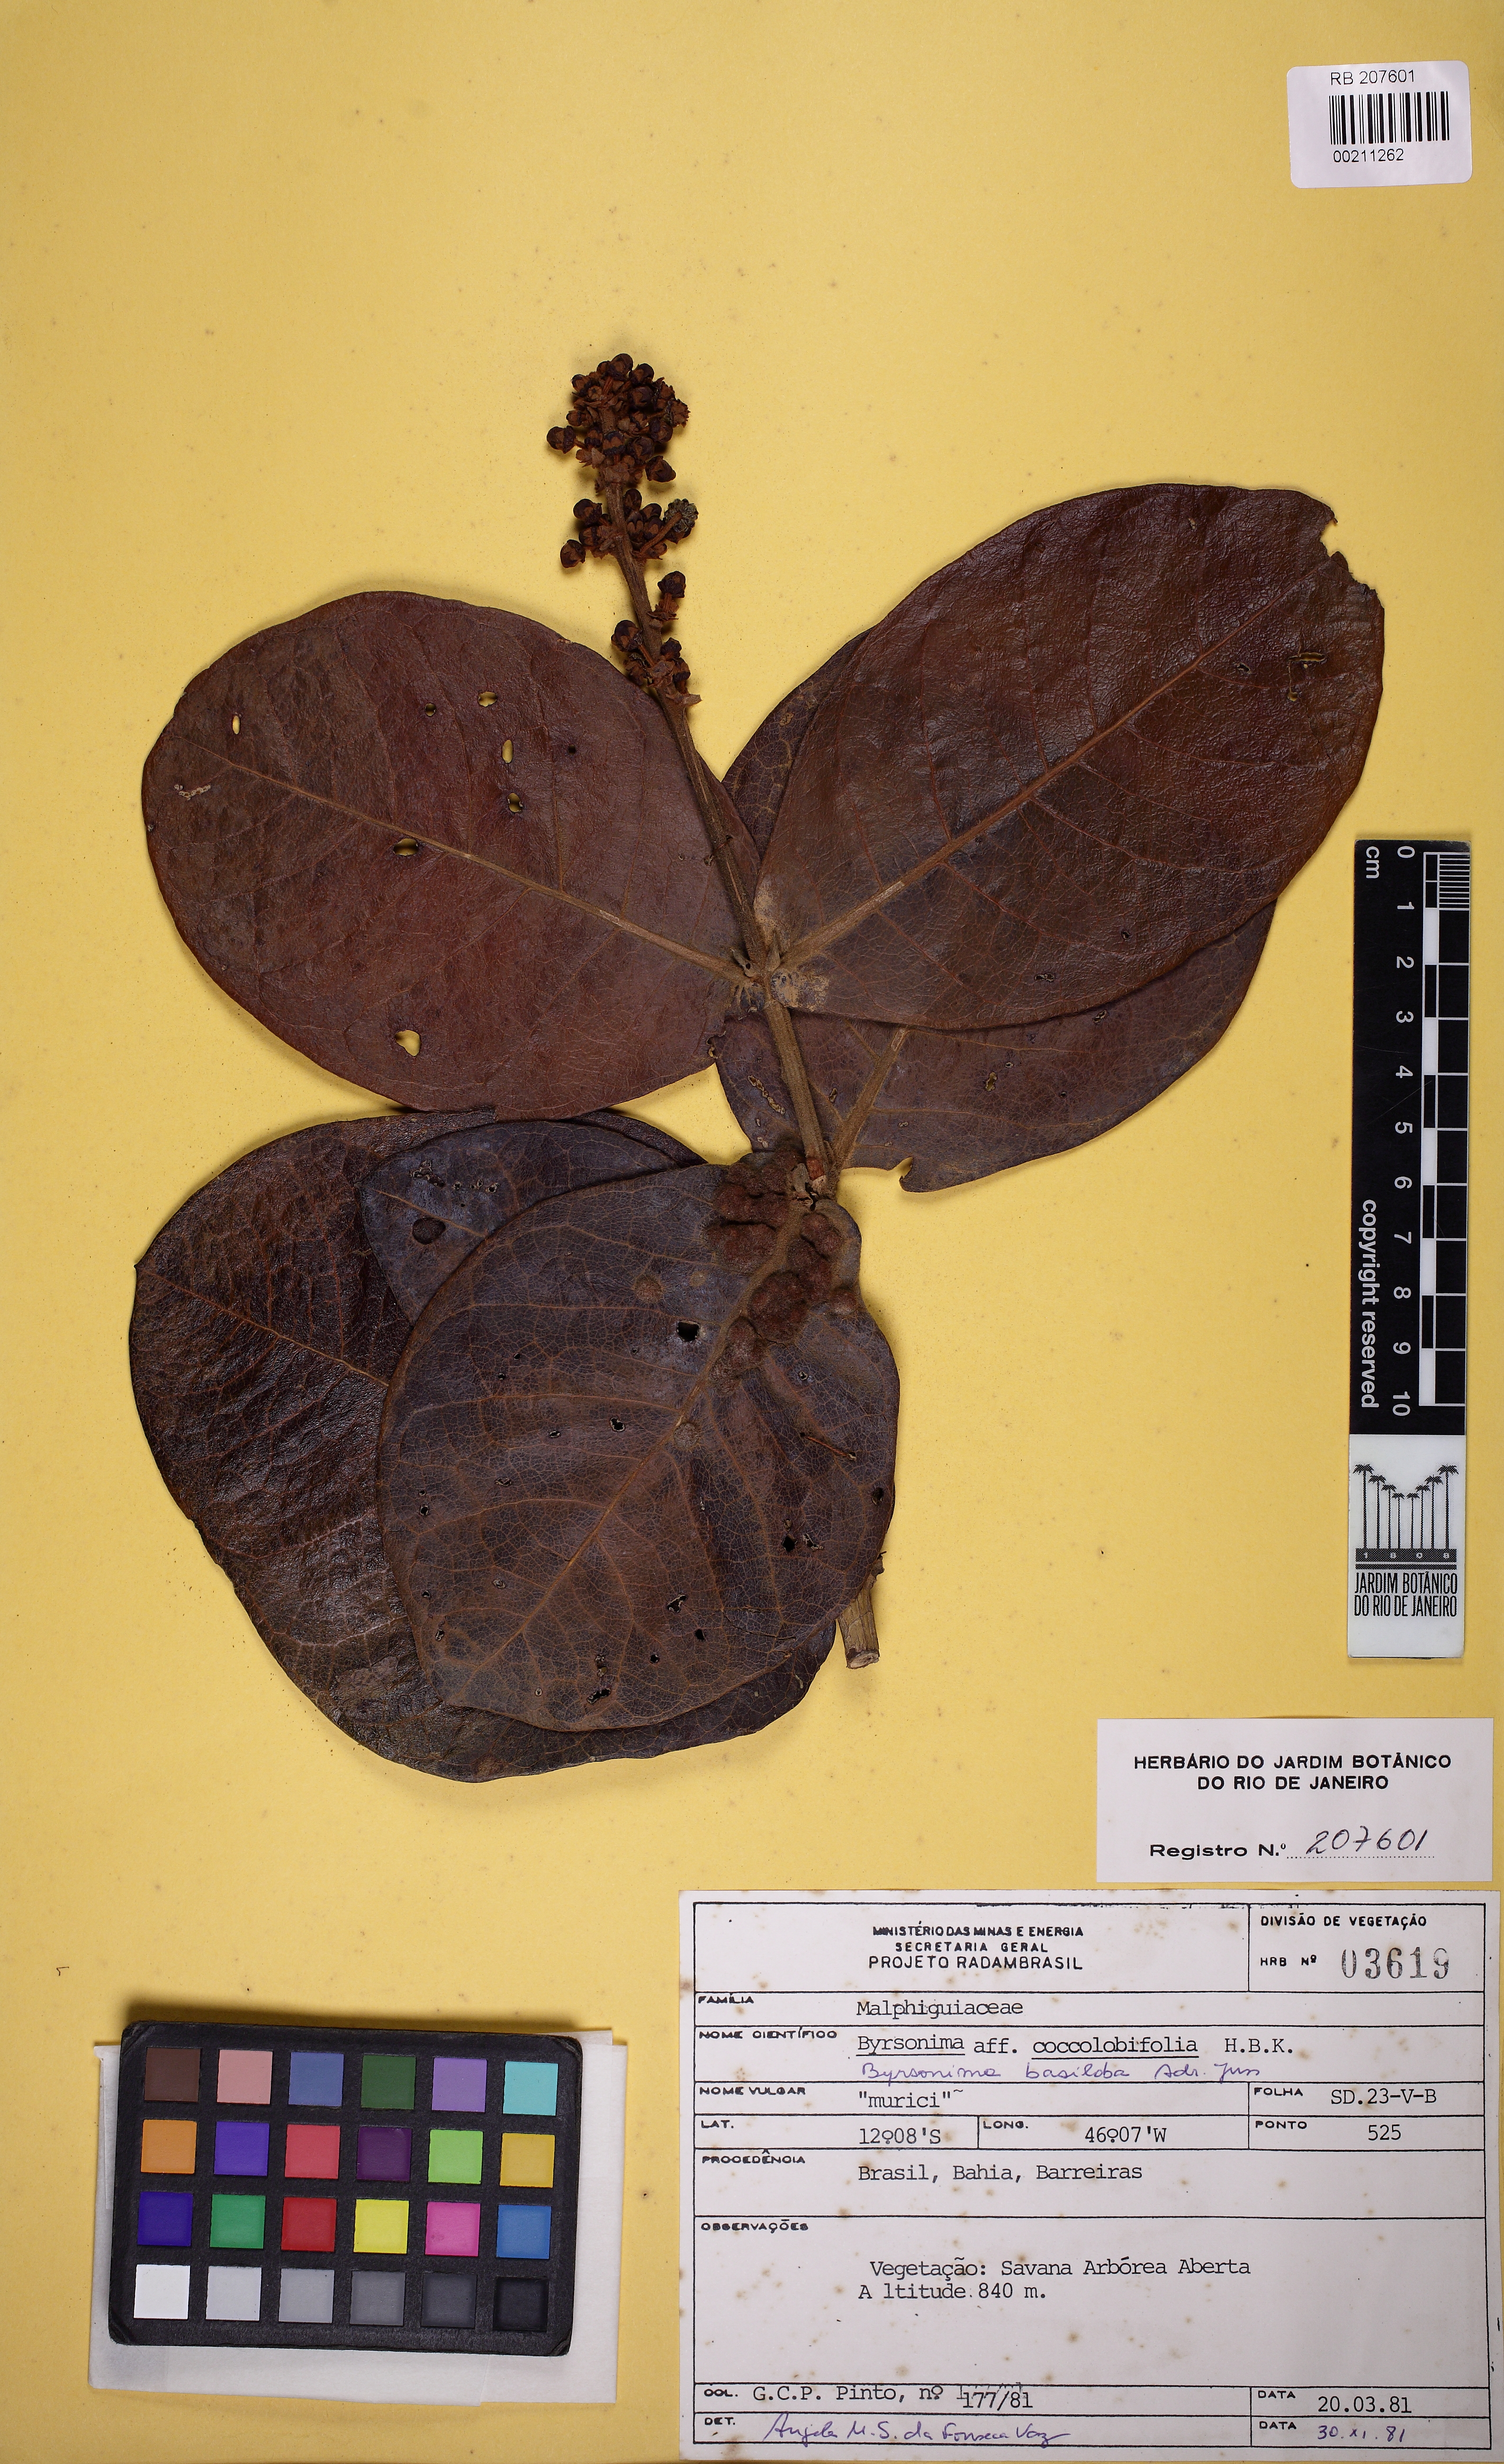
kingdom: Plantae
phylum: Tracheophyta
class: Magnoliopsida
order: Malpighiales
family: Malpighiaceae
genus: Byrsonima
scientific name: Byrsonima basiloba
